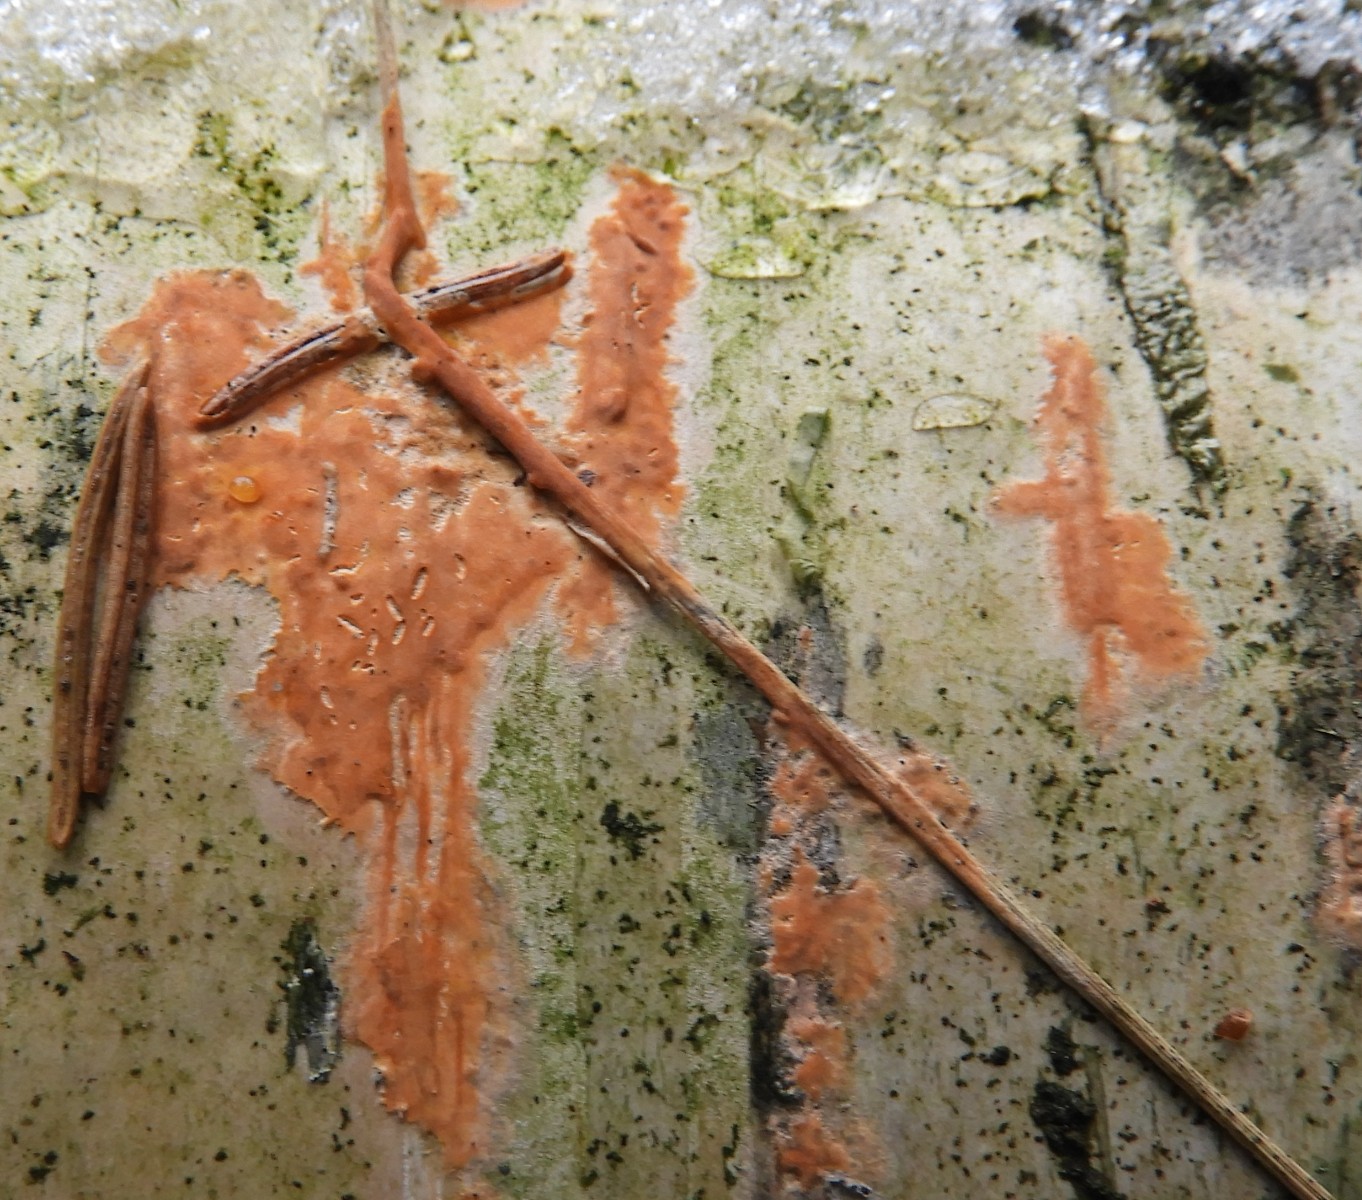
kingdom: Fungi
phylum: Basidiomycota
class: Agaricomycetes
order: Russulales
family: Peniophoraceae
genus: Peniophora
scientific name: Peniophora incarnata
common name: laksefarvet voksskind
